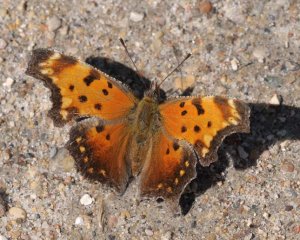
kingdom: Animalia
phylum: Arthropoda
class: Insecta
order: Lepidoptera
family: Nymphalidae
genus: Polygonia
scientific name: Polygonia progne
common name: Gray Comma
